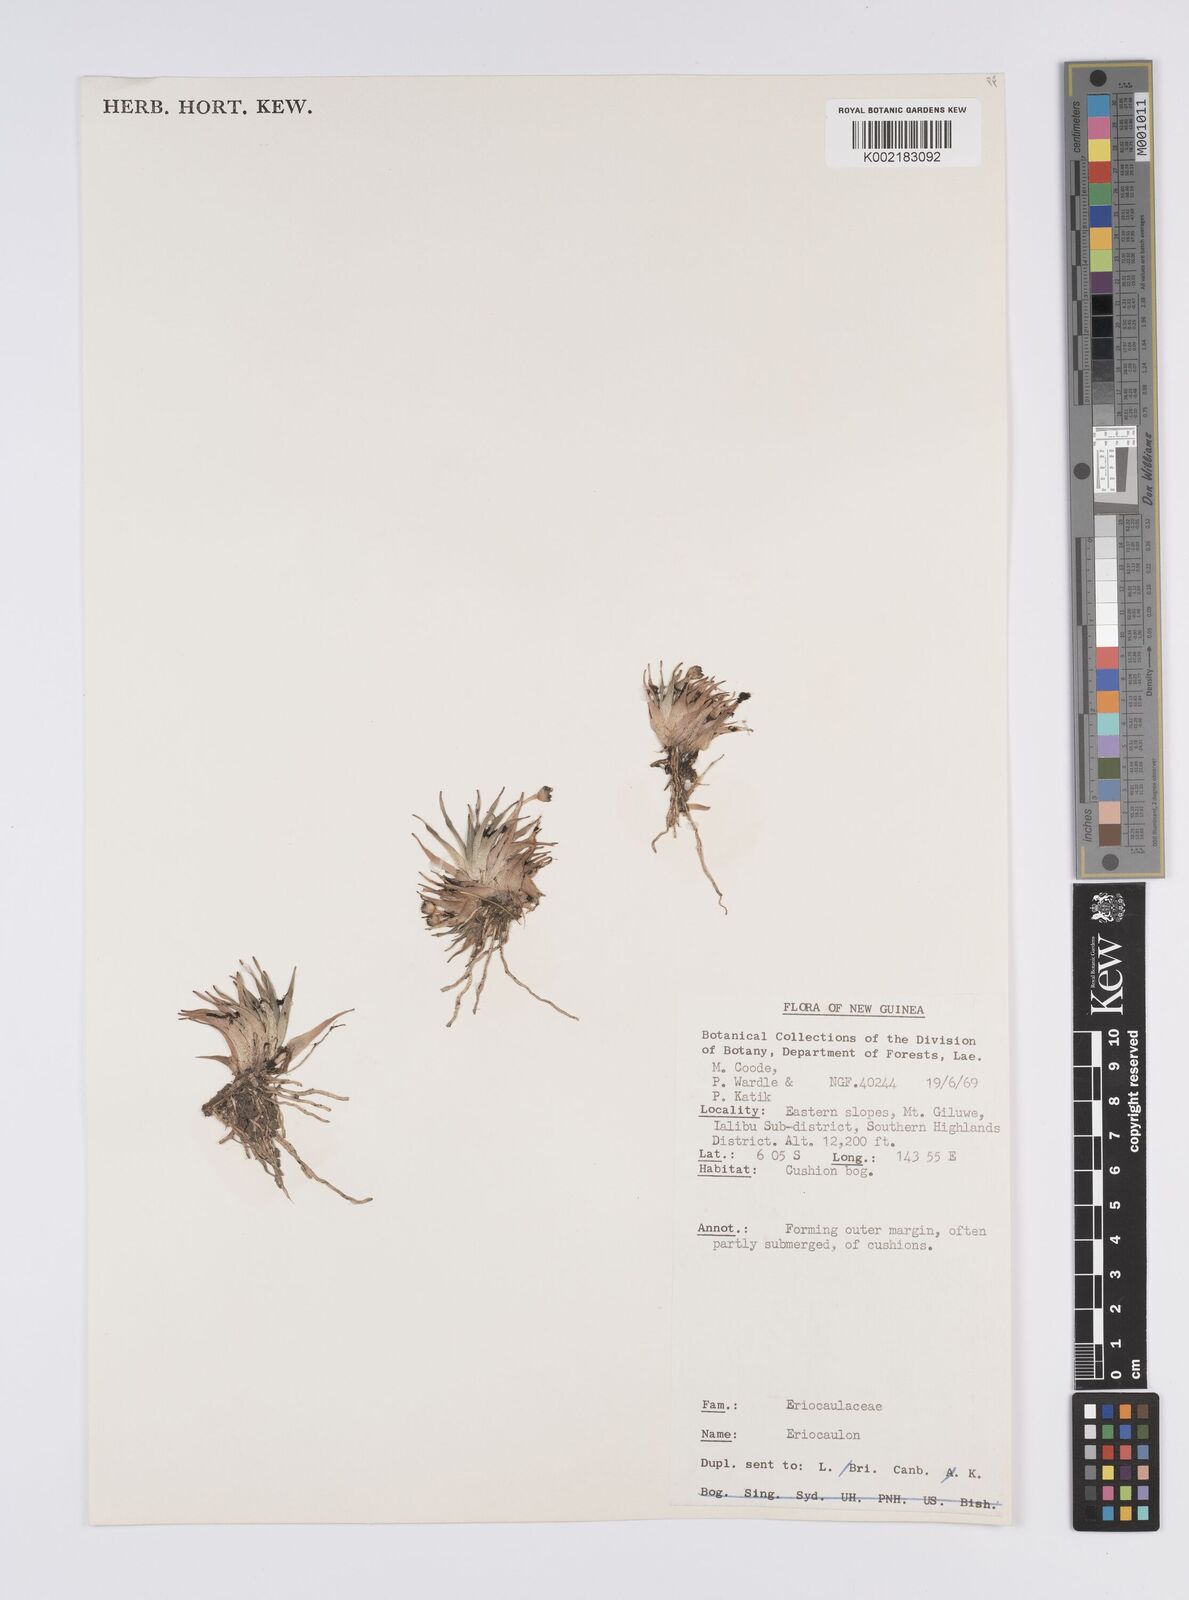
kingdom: Plantae
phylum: Tracheophyta
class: Liliopsida
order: Poales
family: Eriocaulaceae
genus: Eriocaulon
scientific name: Eriocaulon
